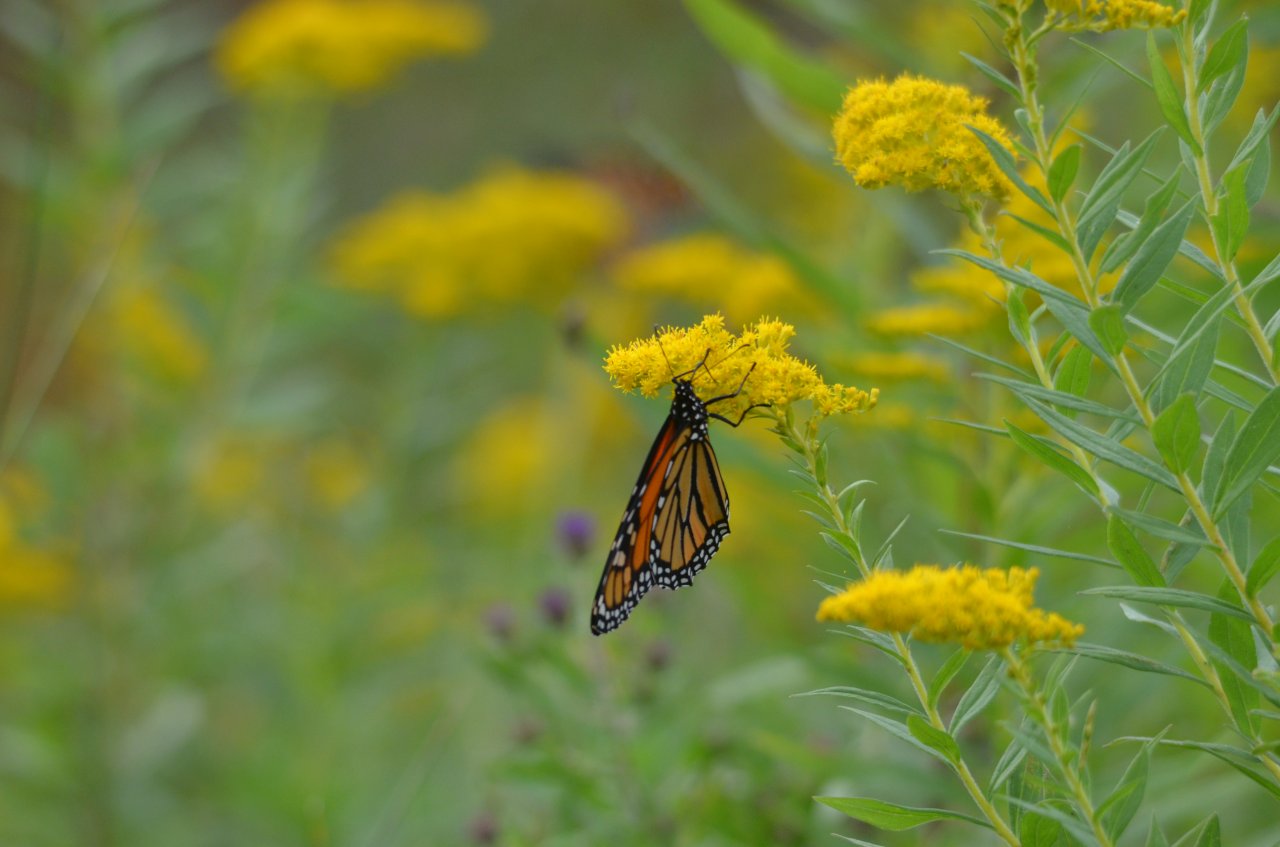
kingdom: Animalia
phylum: Arthropoda
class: Insecta
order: Lepidoptera
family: Nymphalidae
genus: Danaus
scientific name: Danaus plexippus
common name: Monarch
